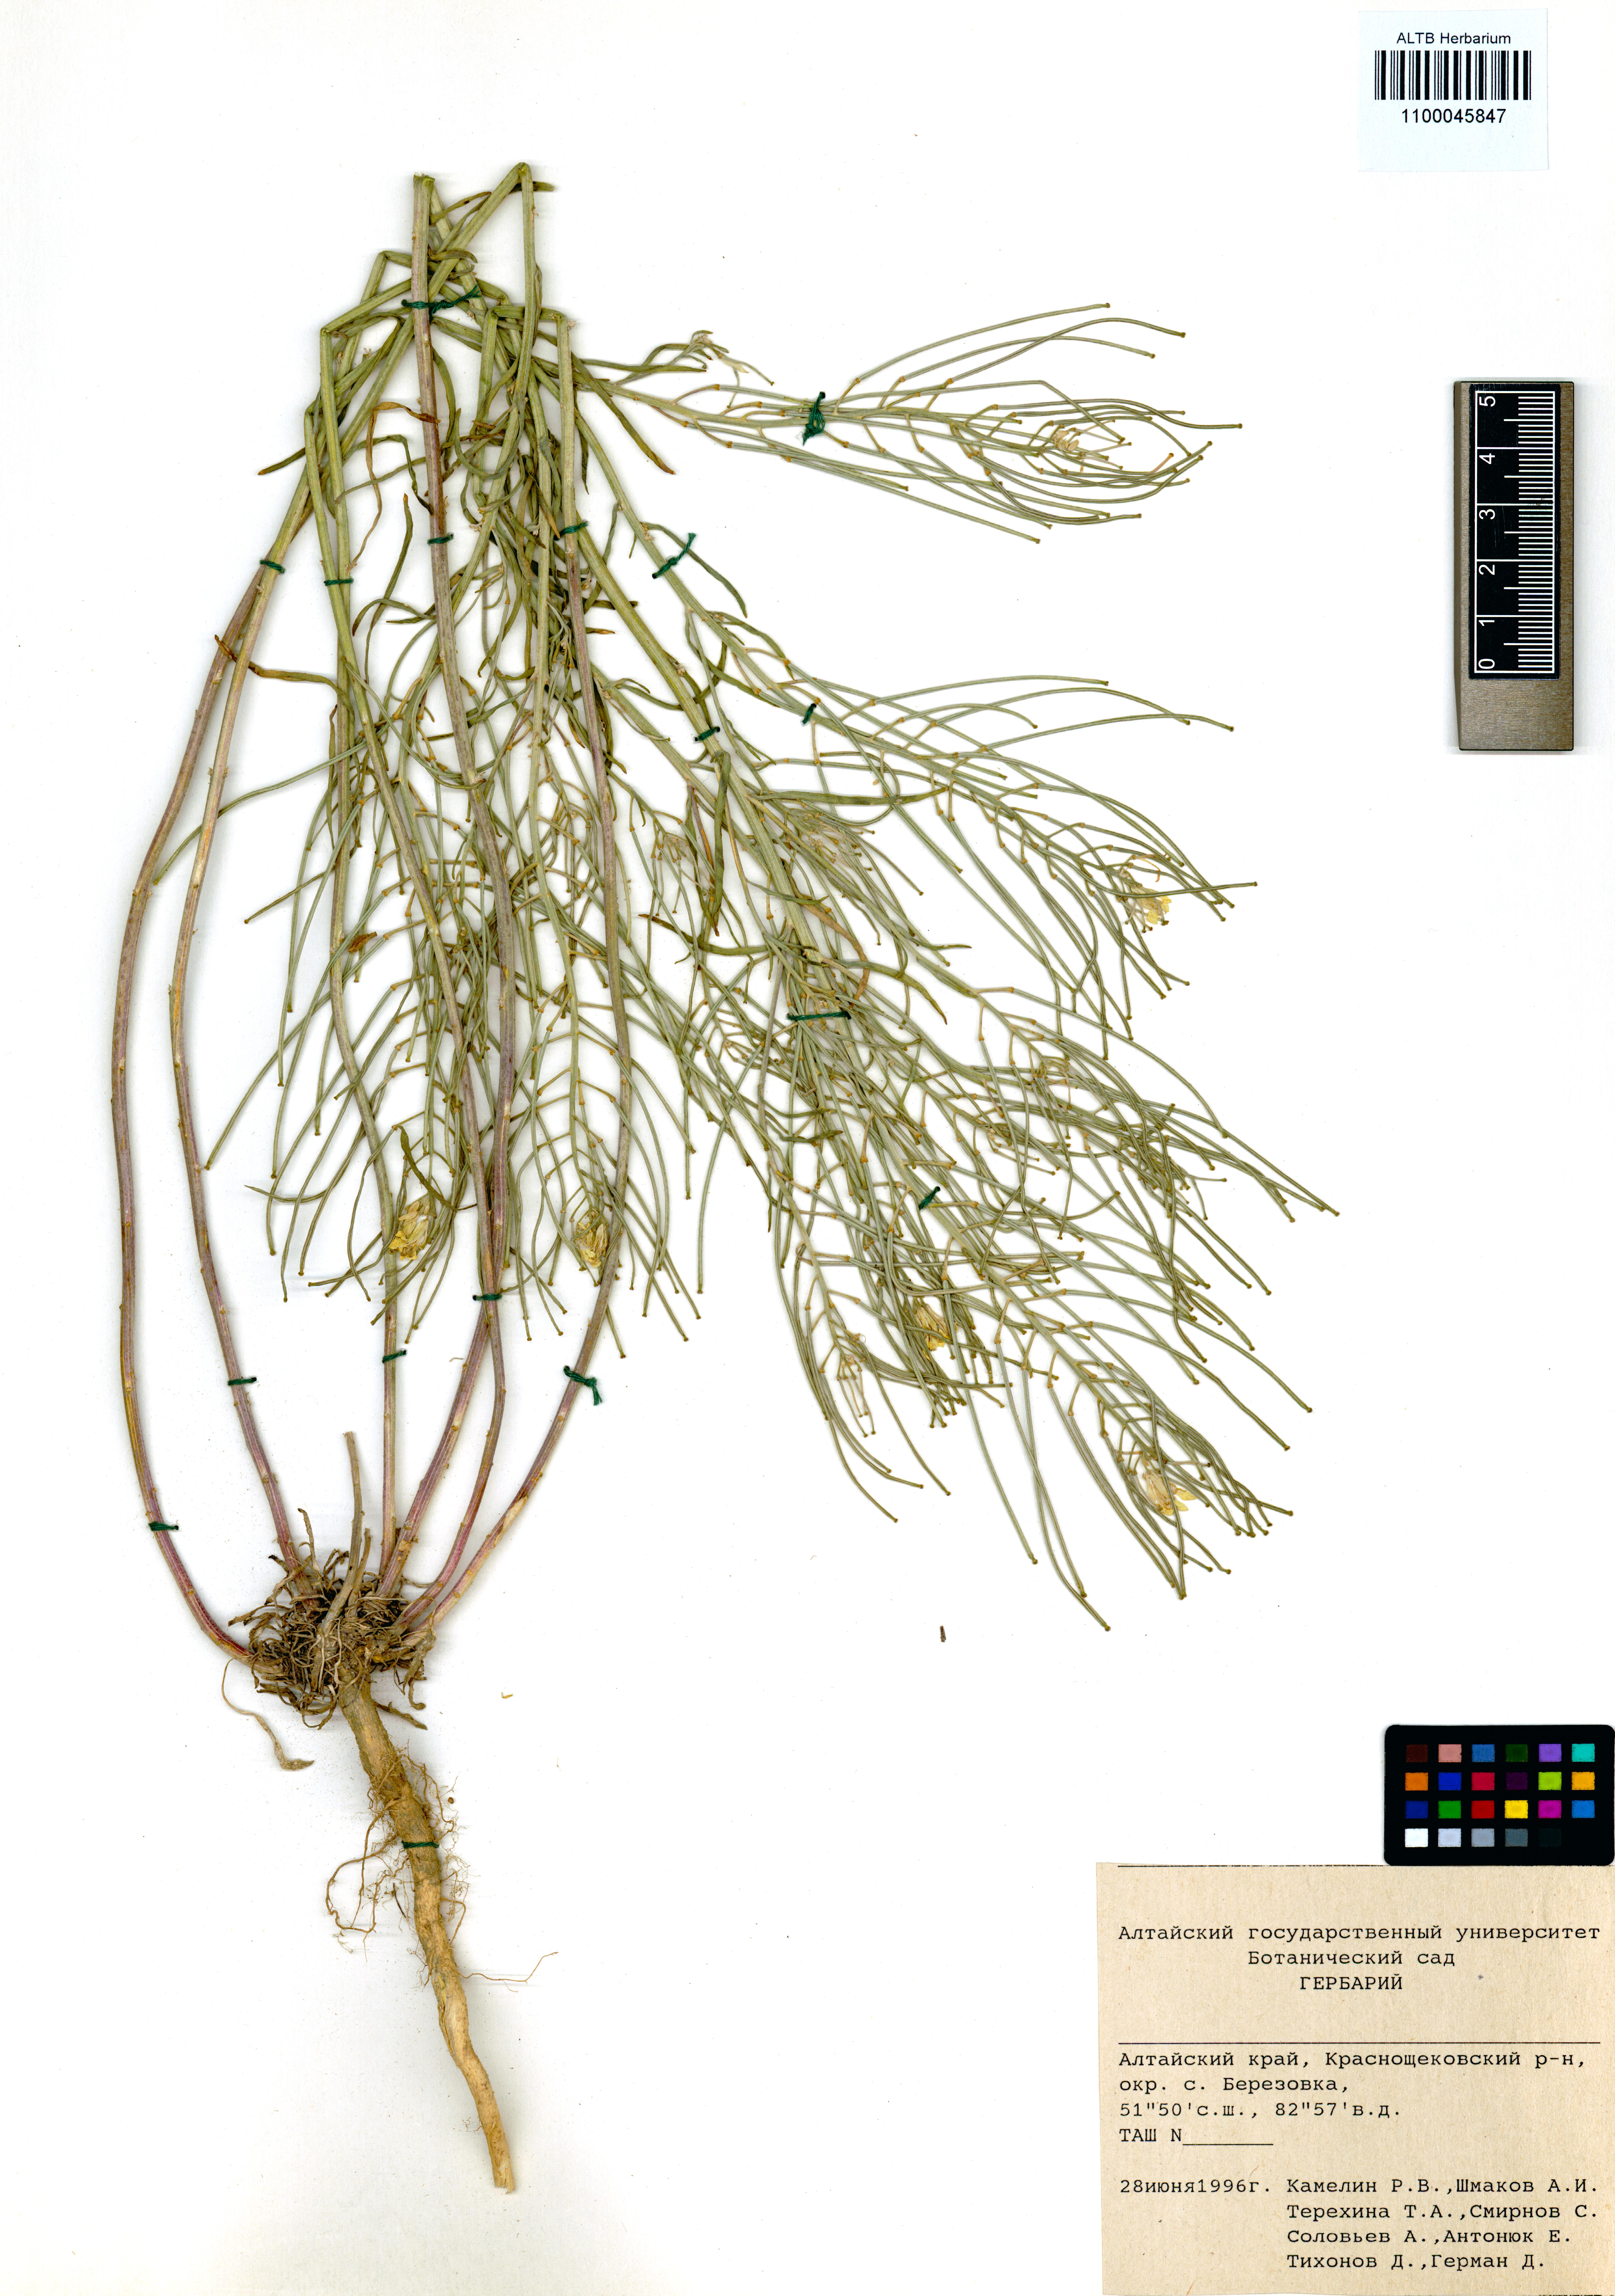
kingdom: Plantae
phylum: Tracheophyta
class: Magnoliopsida
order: Brassicales
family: Brassicaceae
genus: Erysimum
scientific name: Erysimum canescens
